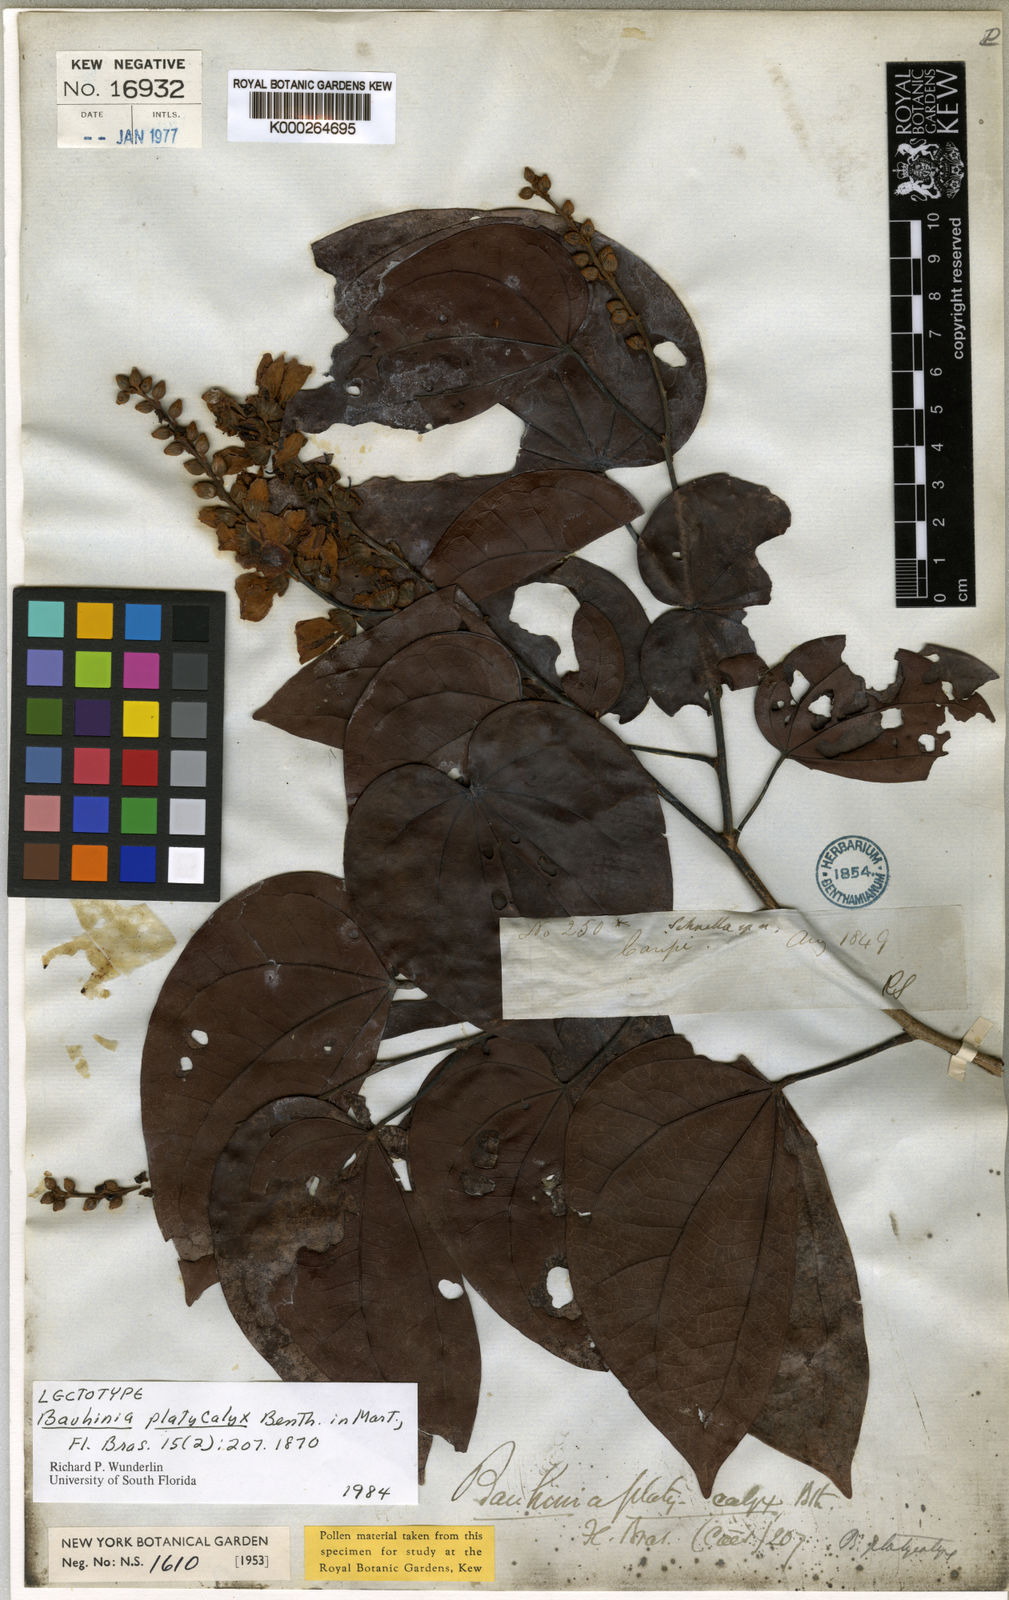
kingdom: Plantae
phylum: Tracheophyta
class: Magnoliopsida
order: Fabales
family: Fabaceae
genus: Schnella
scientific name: Schnella platycalyx
